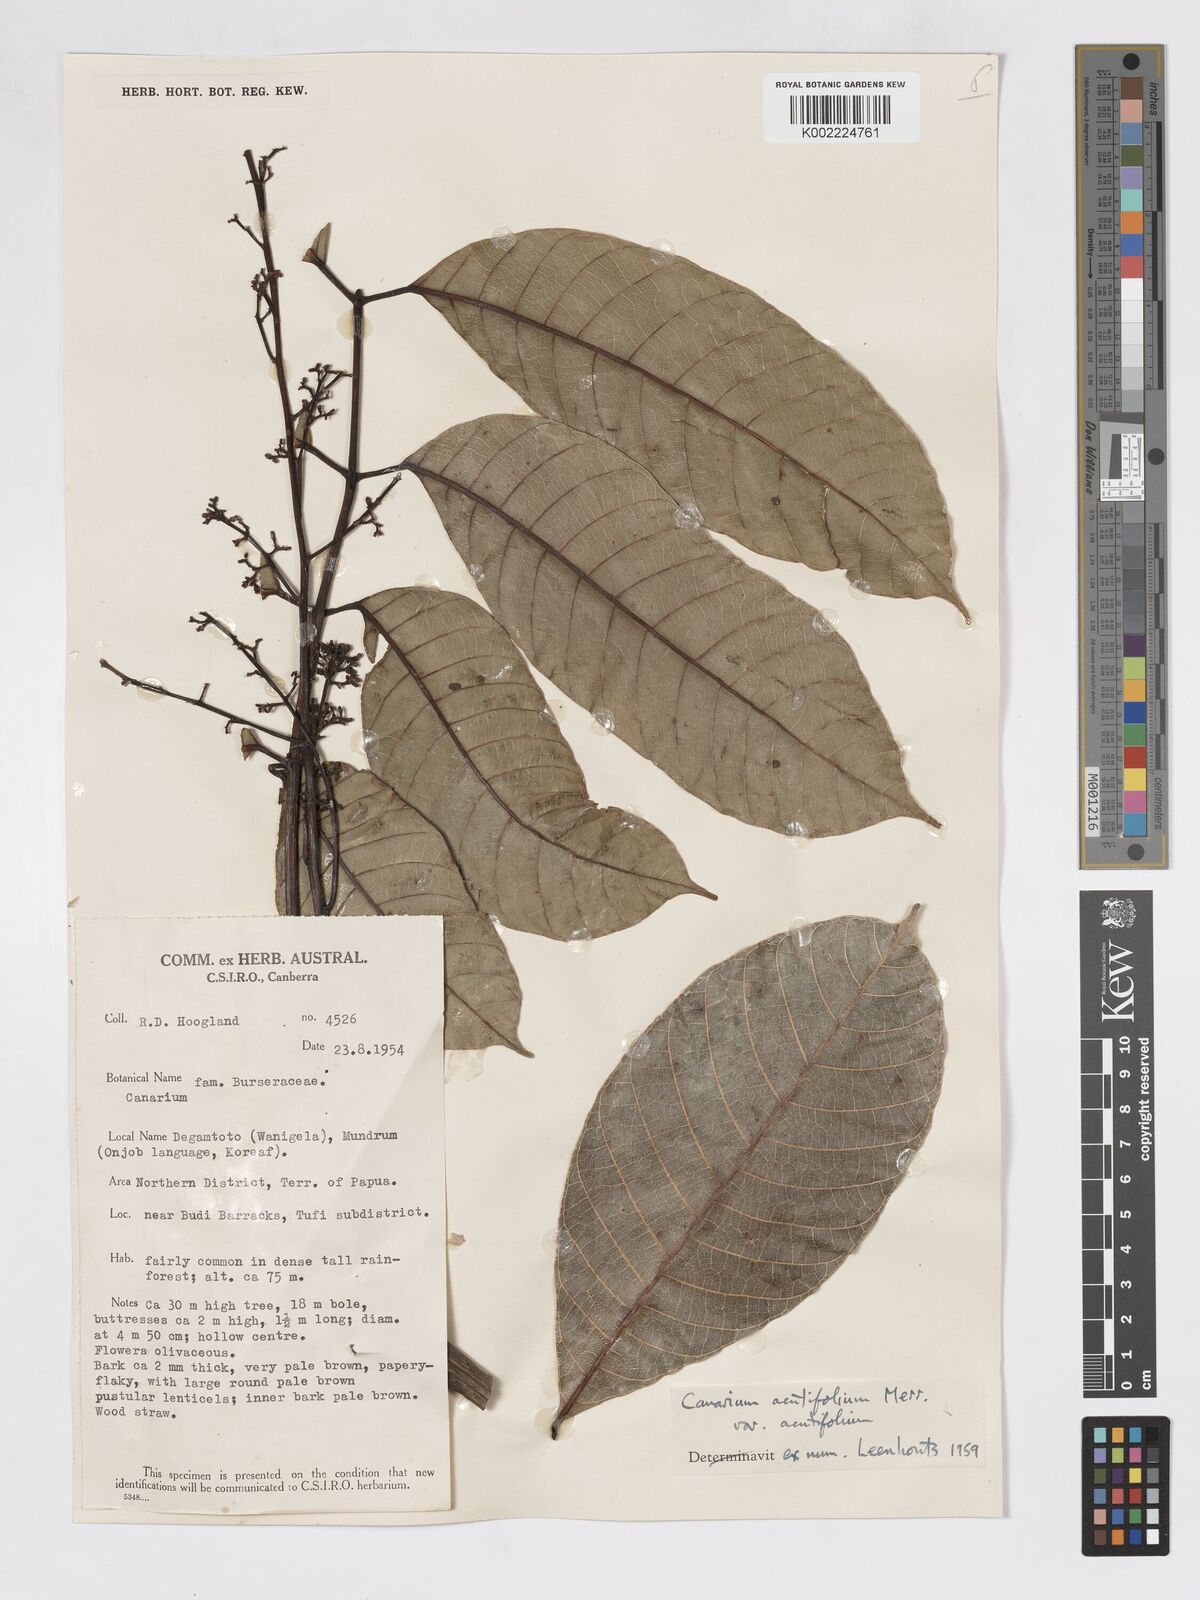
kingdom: Plantae
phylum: Tracheophyta
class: Magnoliopsida
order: Sapindales
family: Burseraceae
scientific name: Burseraceae
